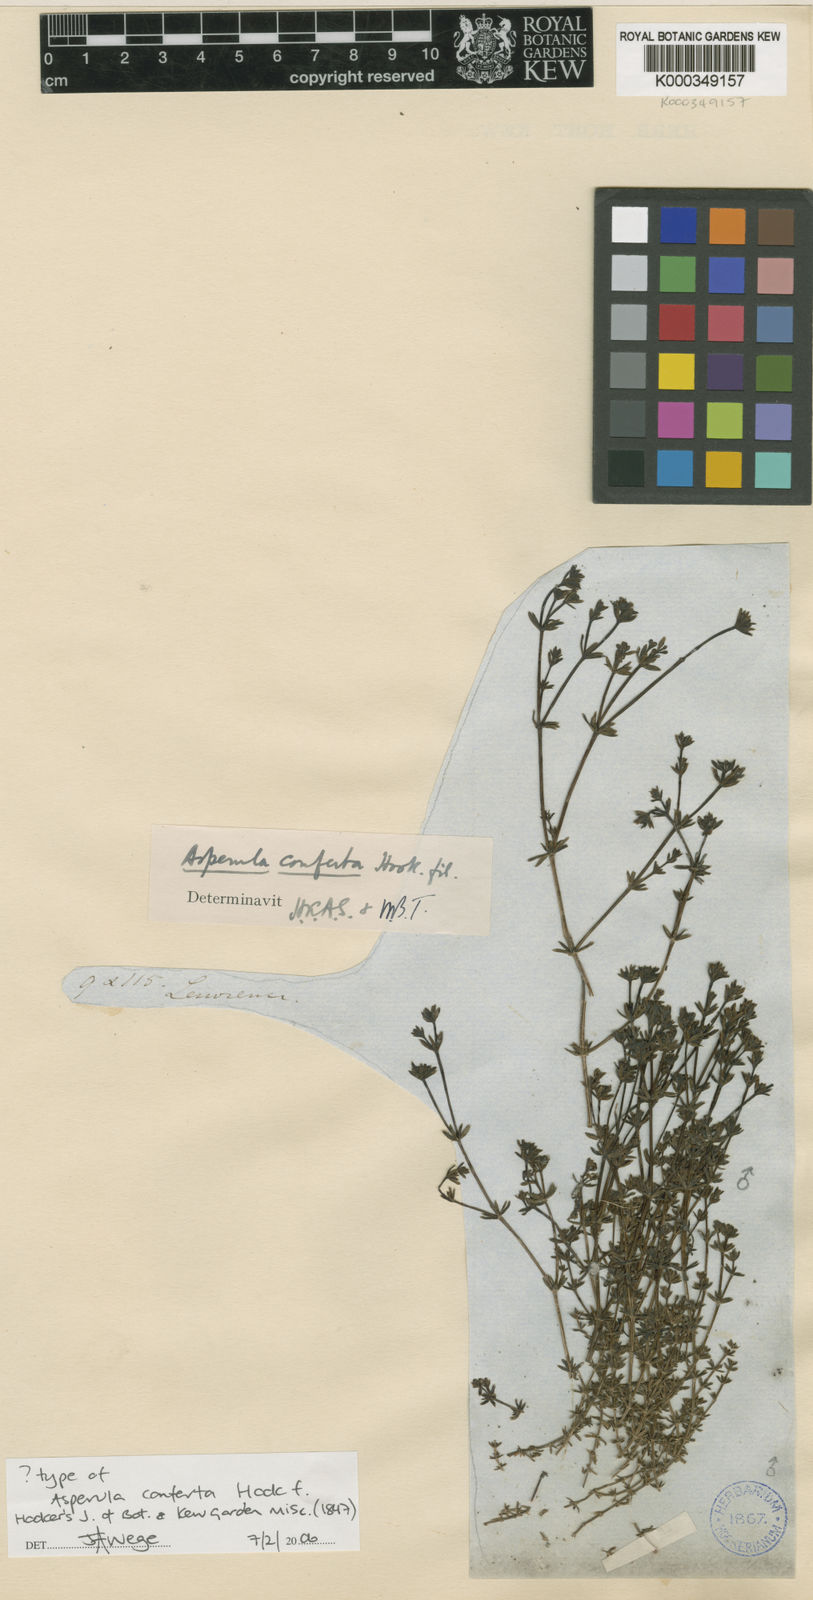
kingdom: Plantae
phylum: Tracheophyta
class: Magnoliopsida
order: Gentianales
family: Rubiaceae
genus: Asperula
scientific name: Asperula conferta
